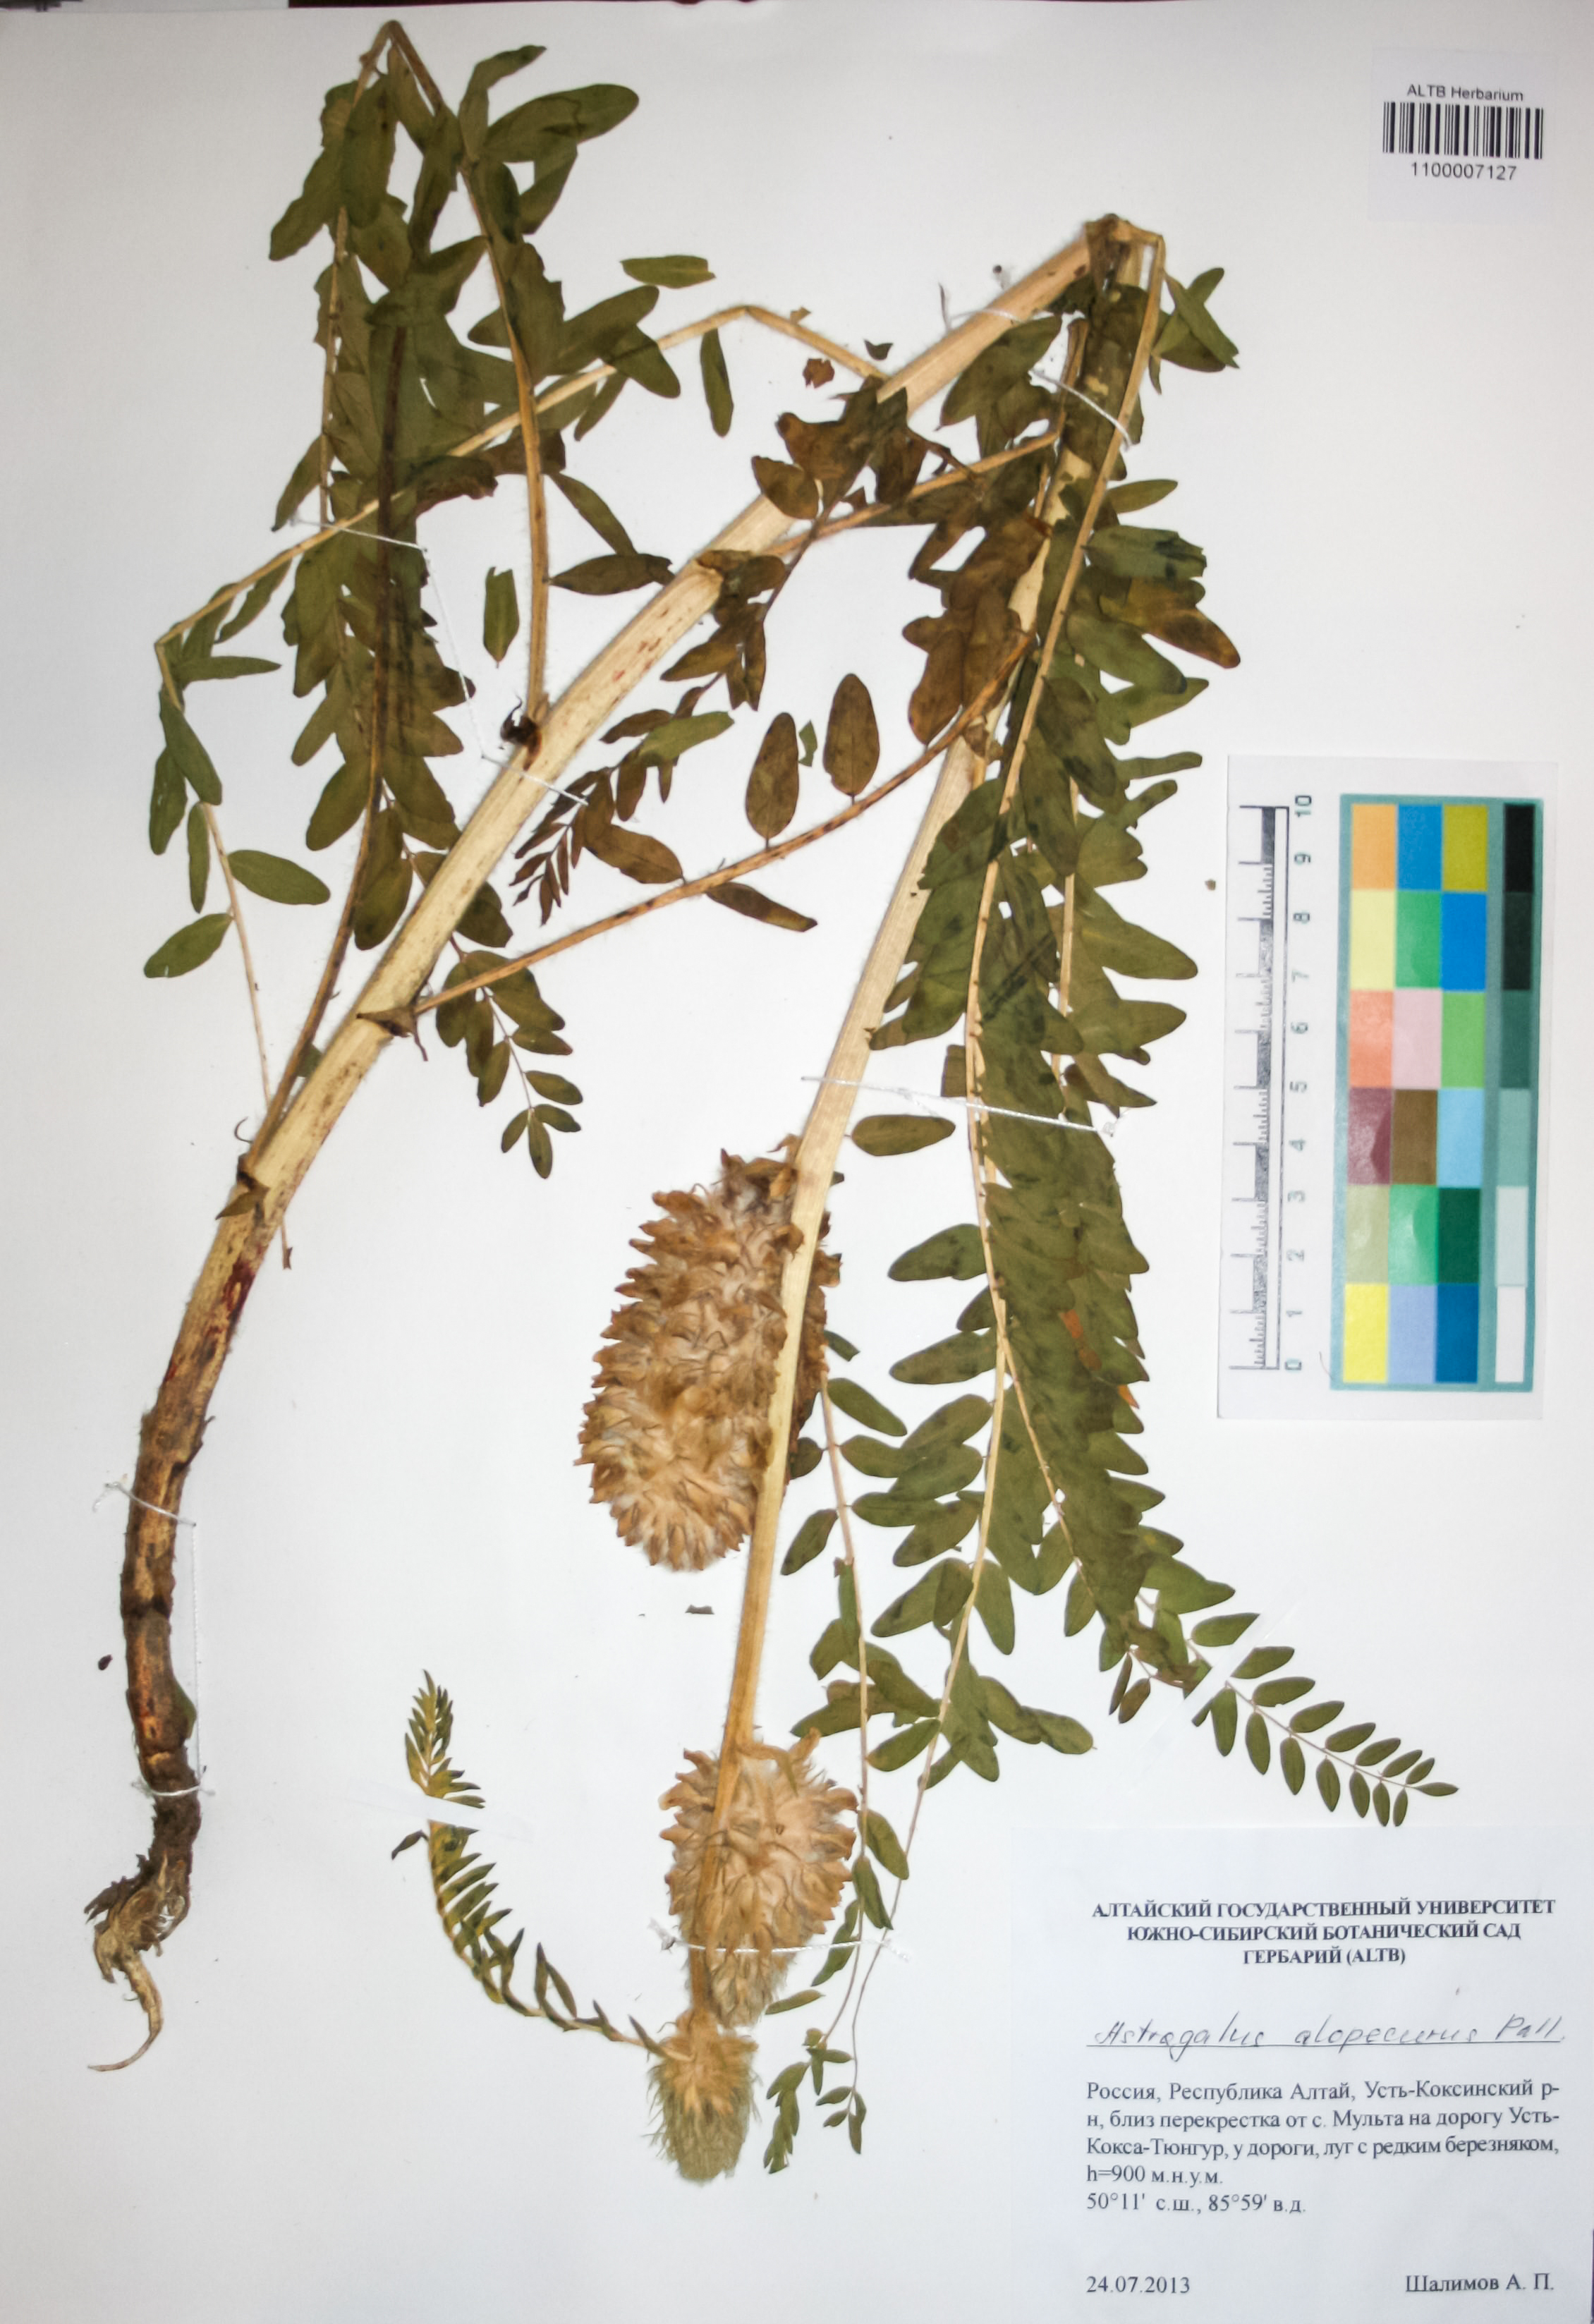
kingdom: Plantae
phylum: Tracheophyta
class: Magnoliopsida
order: Fabales
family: Fabaceae
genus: Astragalus
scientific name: Astragalus alopecurus
